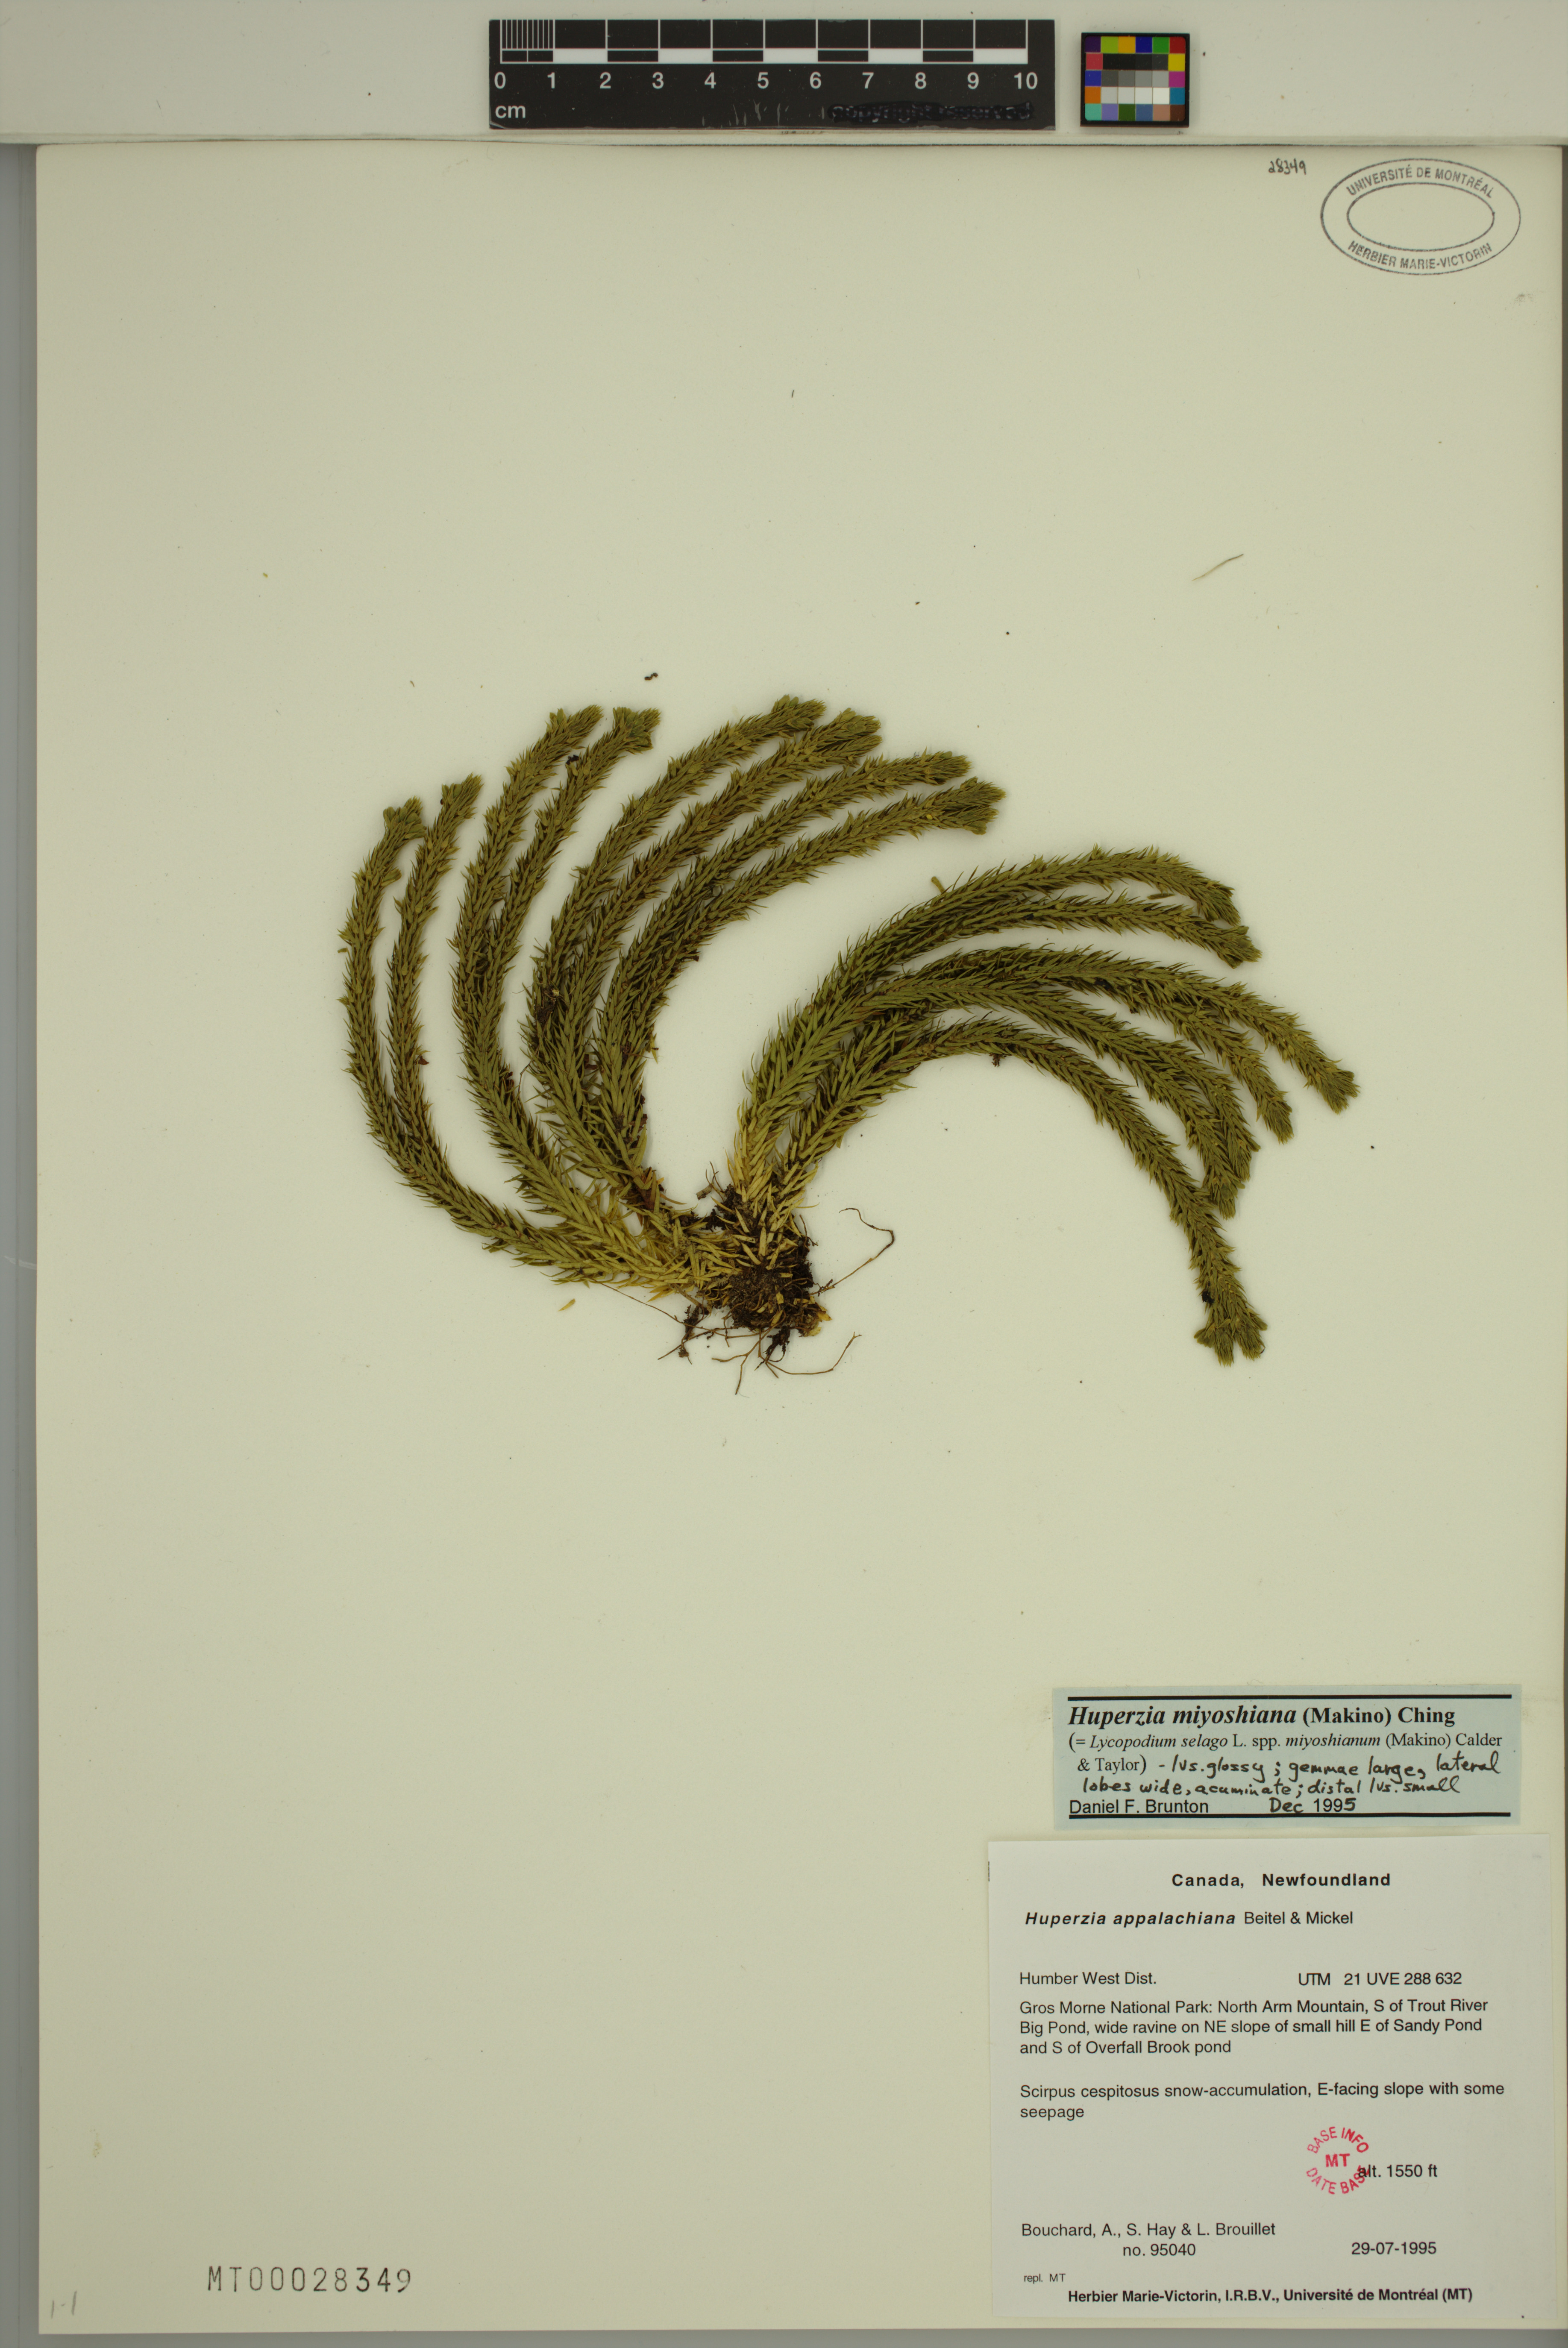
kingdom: Plantae
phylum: Tracheophyta
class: Lycopodiopsida
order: Lycopodiales
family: Lycopodiaceae
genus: Huperzia
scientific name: Huperzia miyoshiana
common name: Chinese clubmoss
